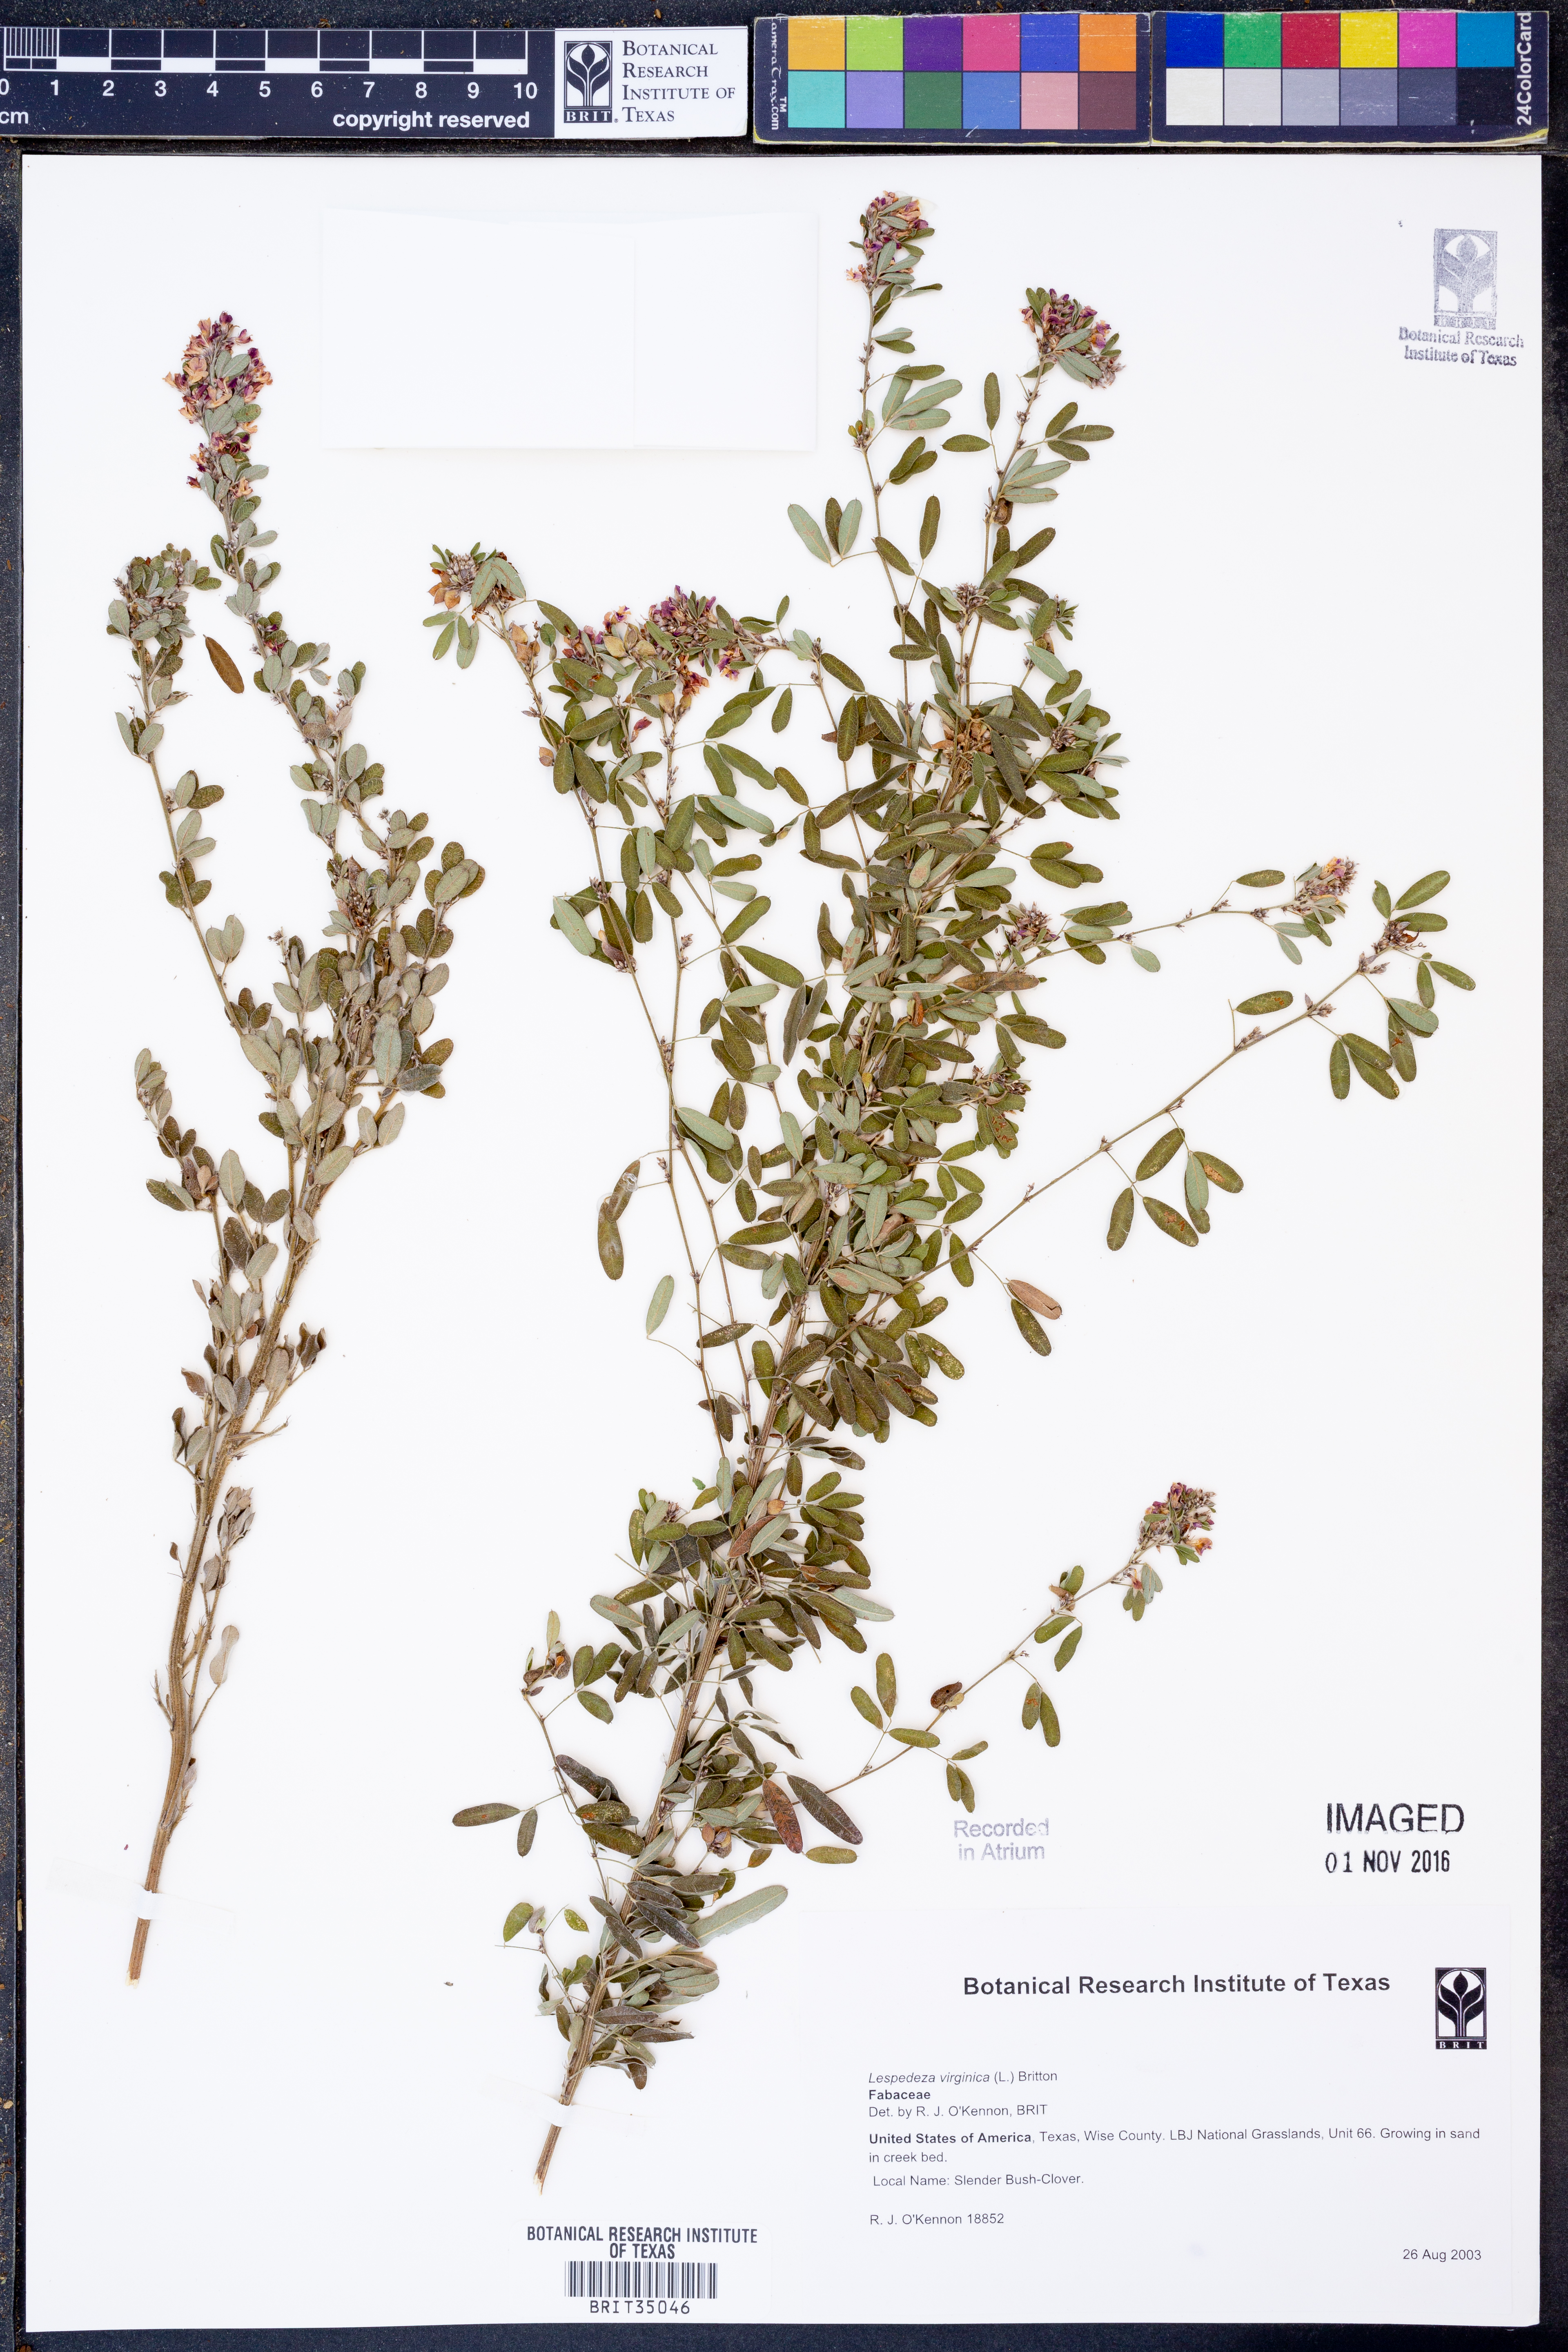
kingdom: Plantae
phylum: Tracheophyta
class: Magnoliopsida
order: Fabales
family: Fabaceae
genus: Lespedeza
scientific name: Lespedeza virginica
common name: Slender bush-clover
